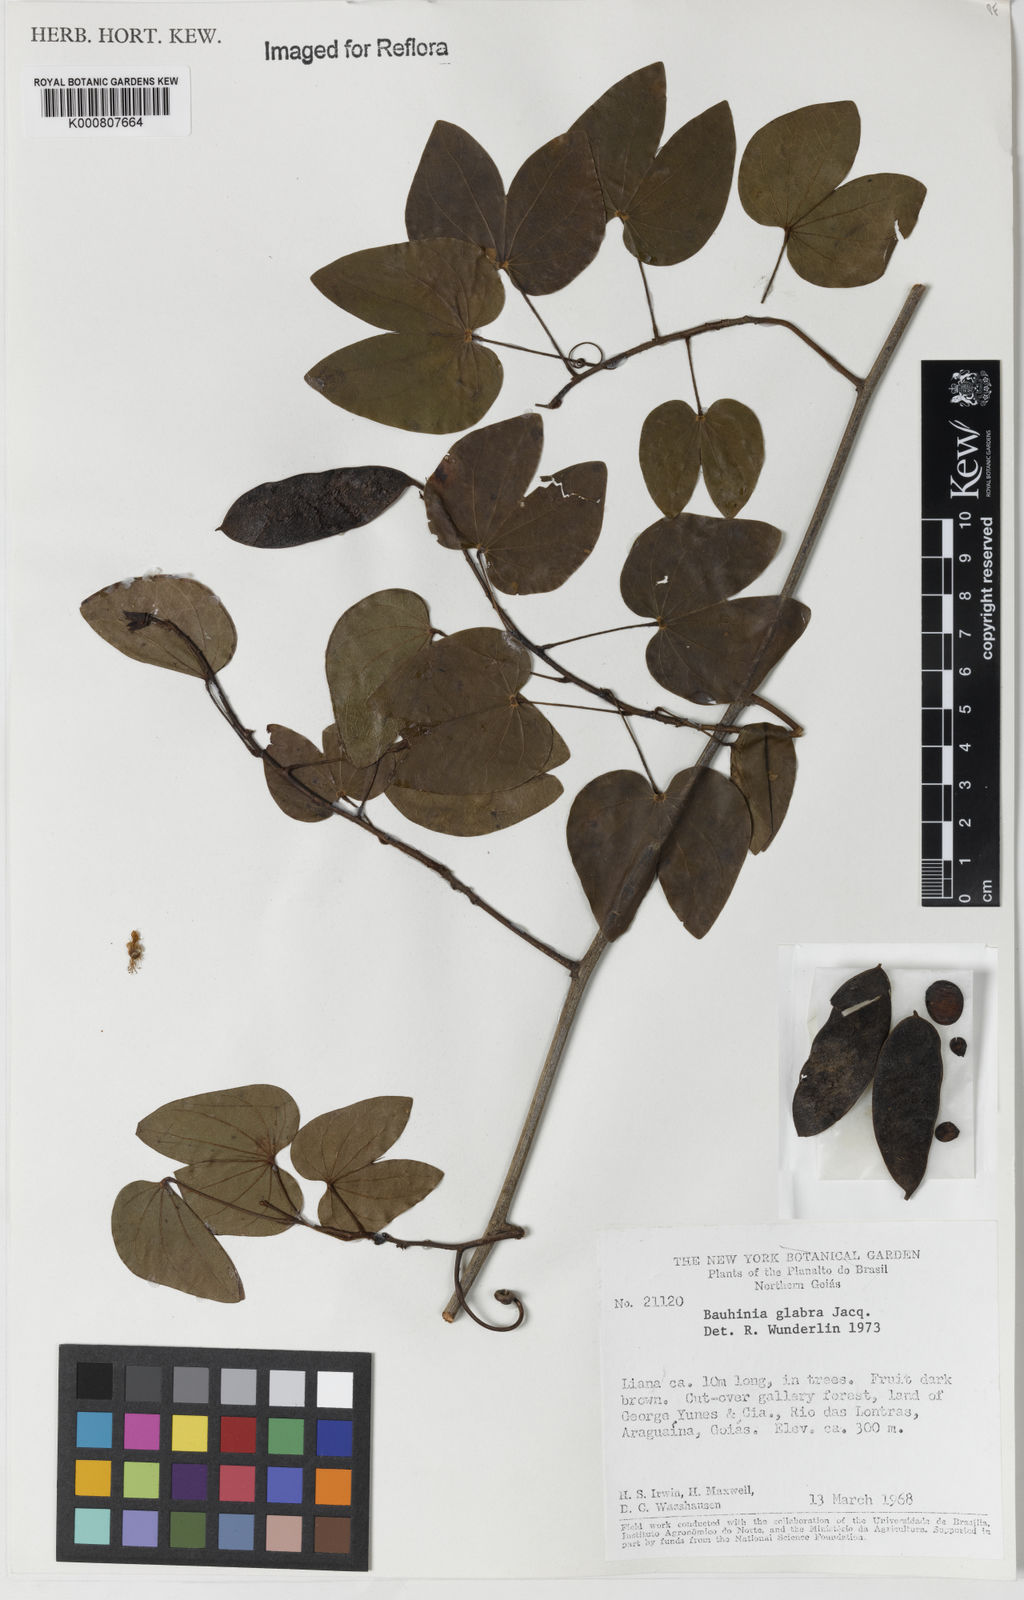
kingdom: Plantae
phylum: Tracheophyta
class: Magnoliopsida
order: Fabales
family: Fabaceae
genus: Schnella
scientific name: Schnella glabra
